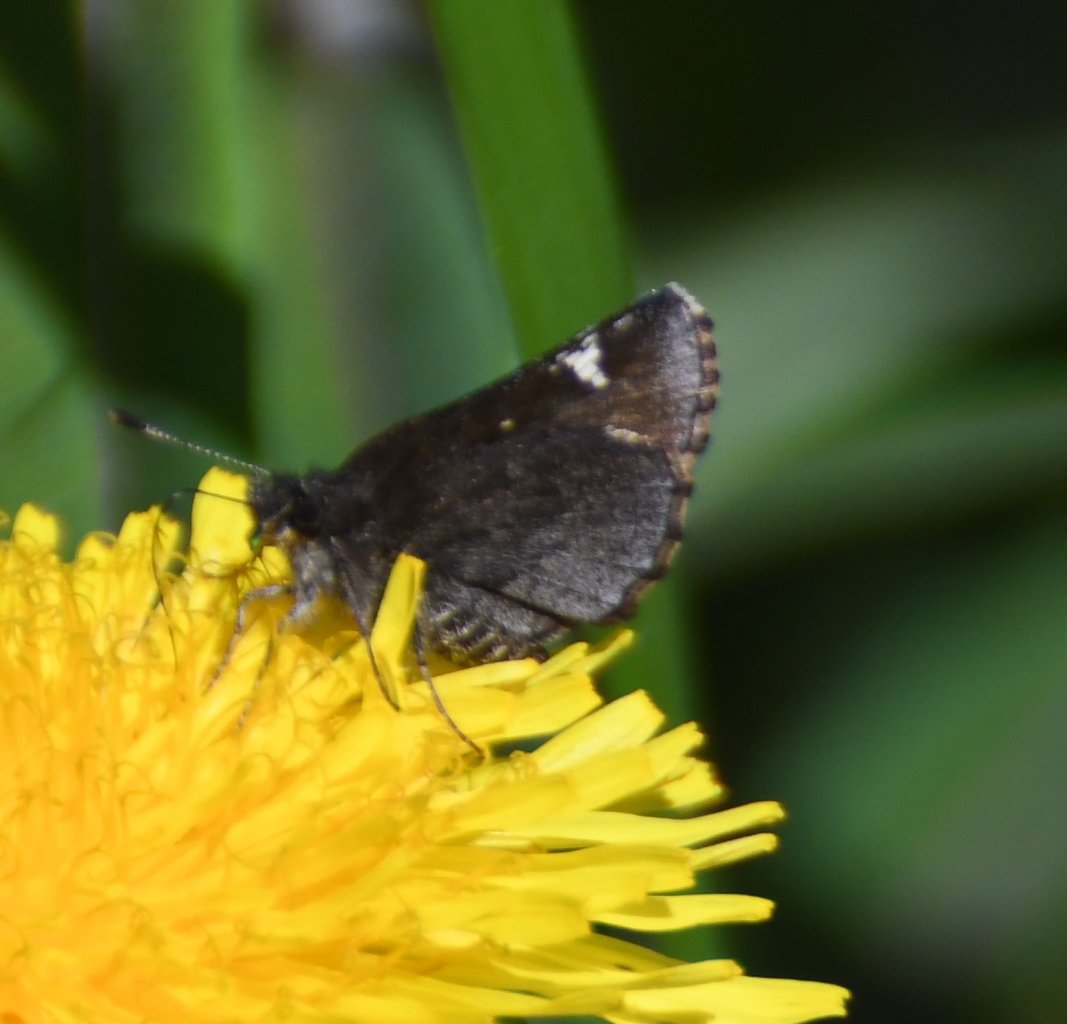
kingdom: Animalia
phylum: Arthropoda
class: Insecta
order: Lepidoptera
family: Hesperiidae
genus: Mastor
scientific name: Mastor vialis
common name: Common Roadside-Skipper
